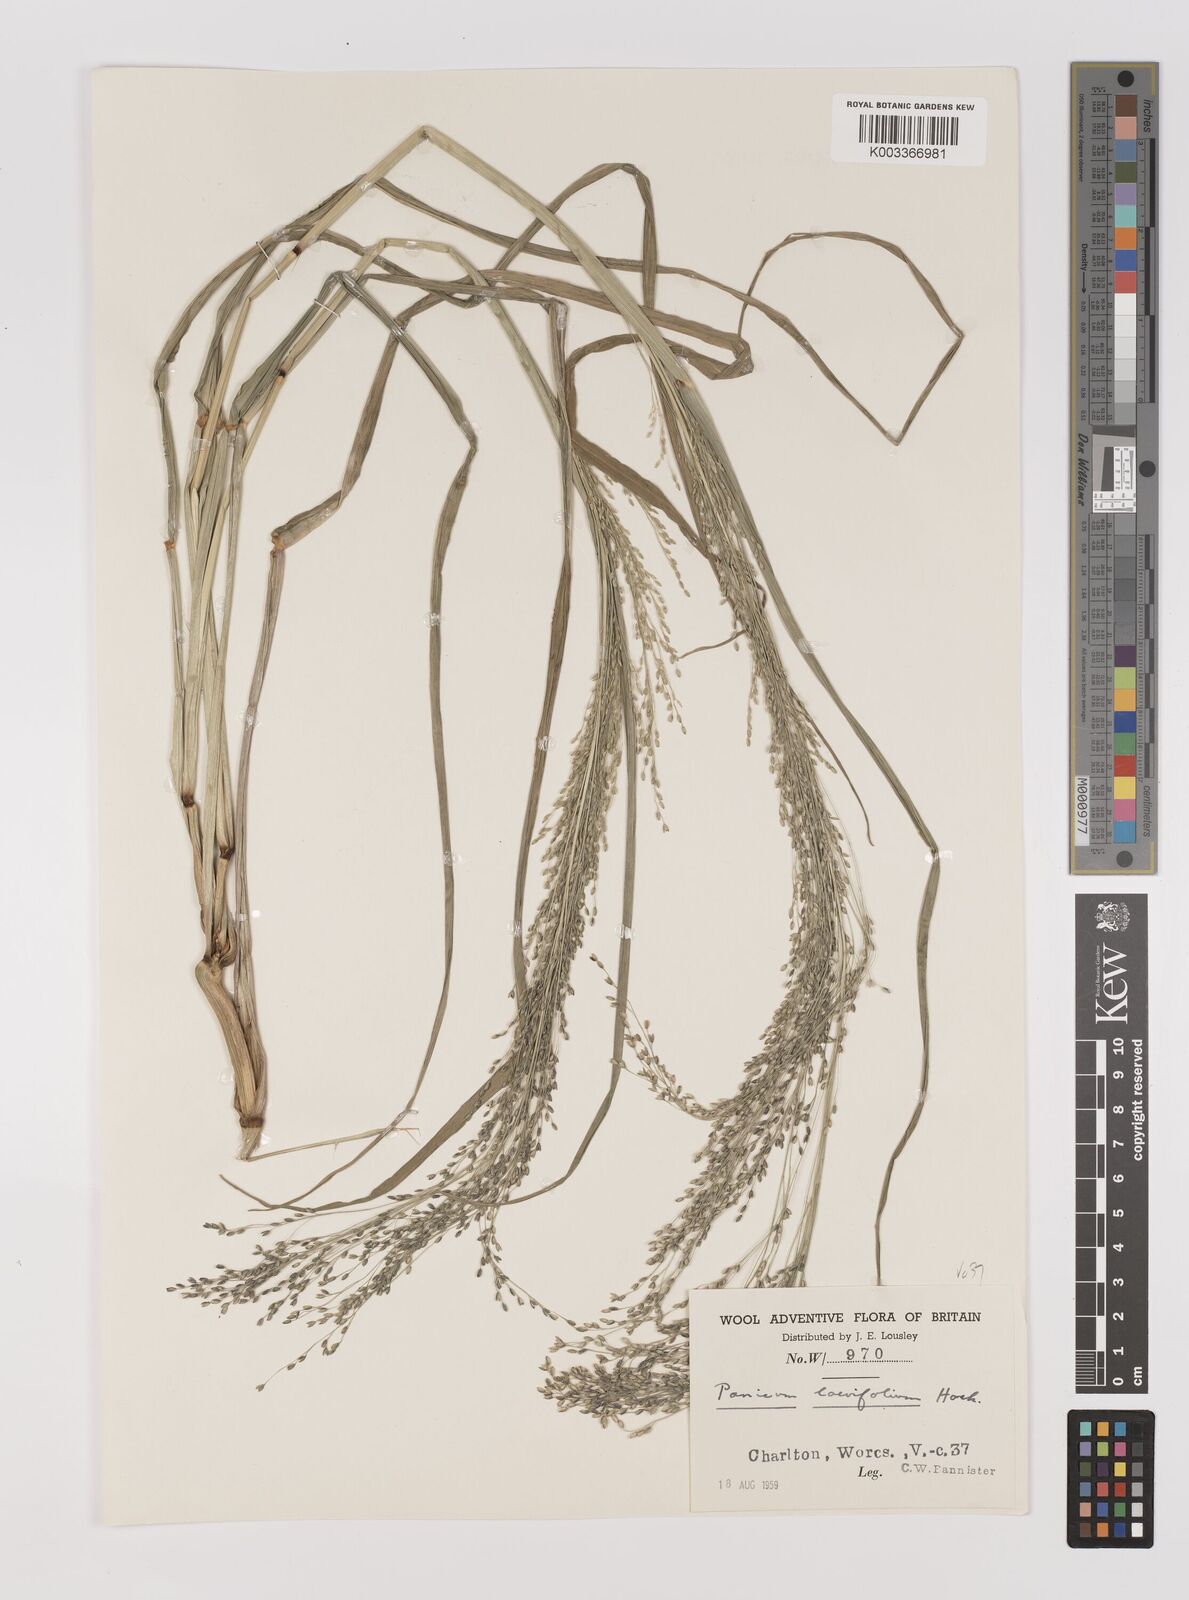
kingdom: Plantae
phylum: Tracheophyta
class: Liliopsida
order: Poales
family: Poaceae
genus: Panicum
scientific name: Panicum schinzii
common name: Sweet grass
